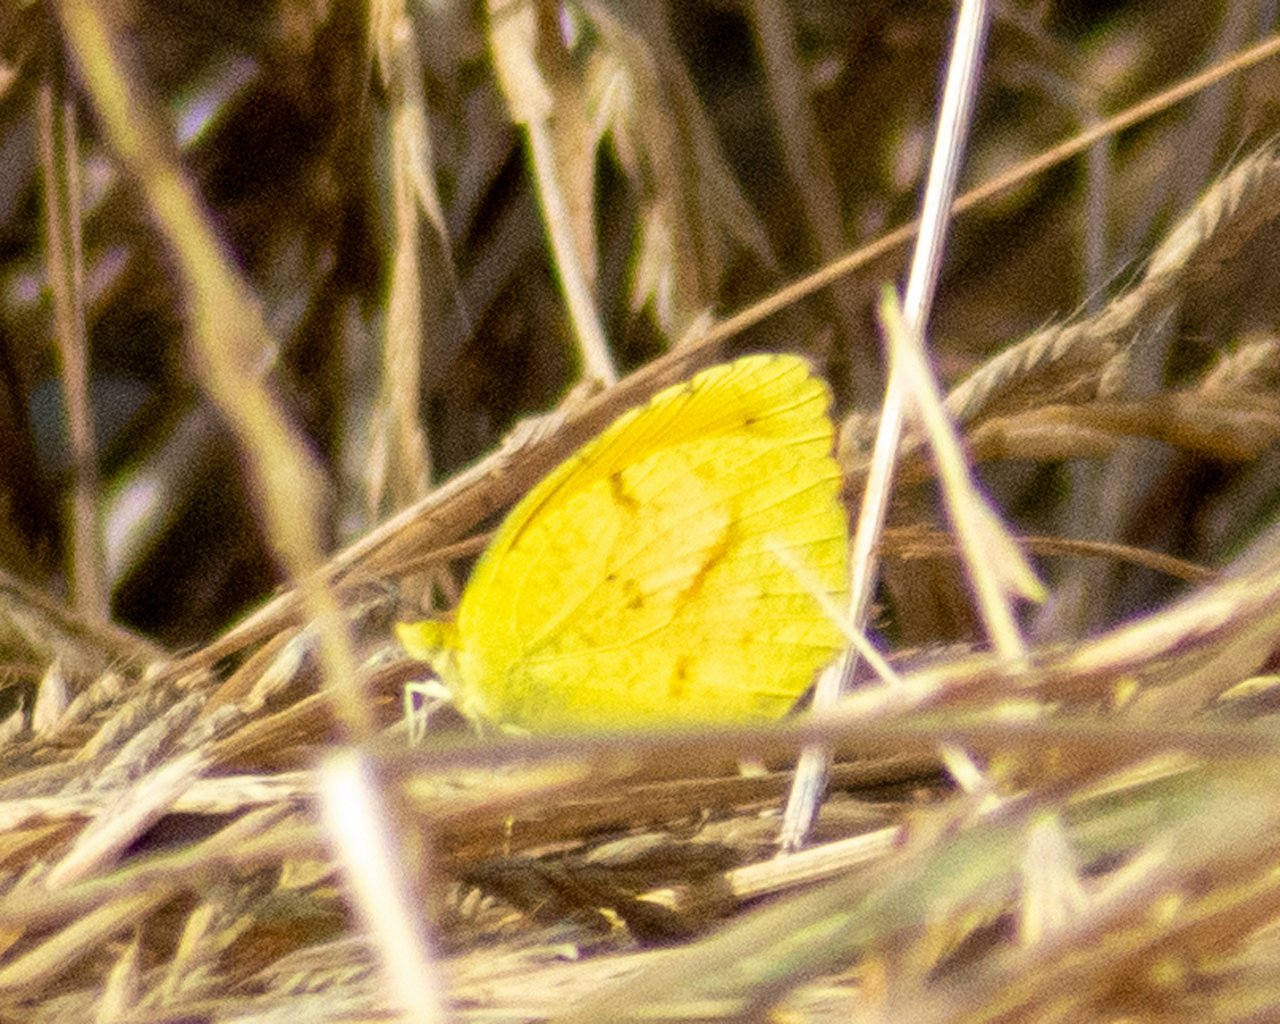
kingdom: Animalia
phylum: Arthropoda
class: Insecta
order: Lepidoptera
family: Pieridae
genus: Abaeis
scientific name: Abaeis nicippe
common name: Sleepy Orange
